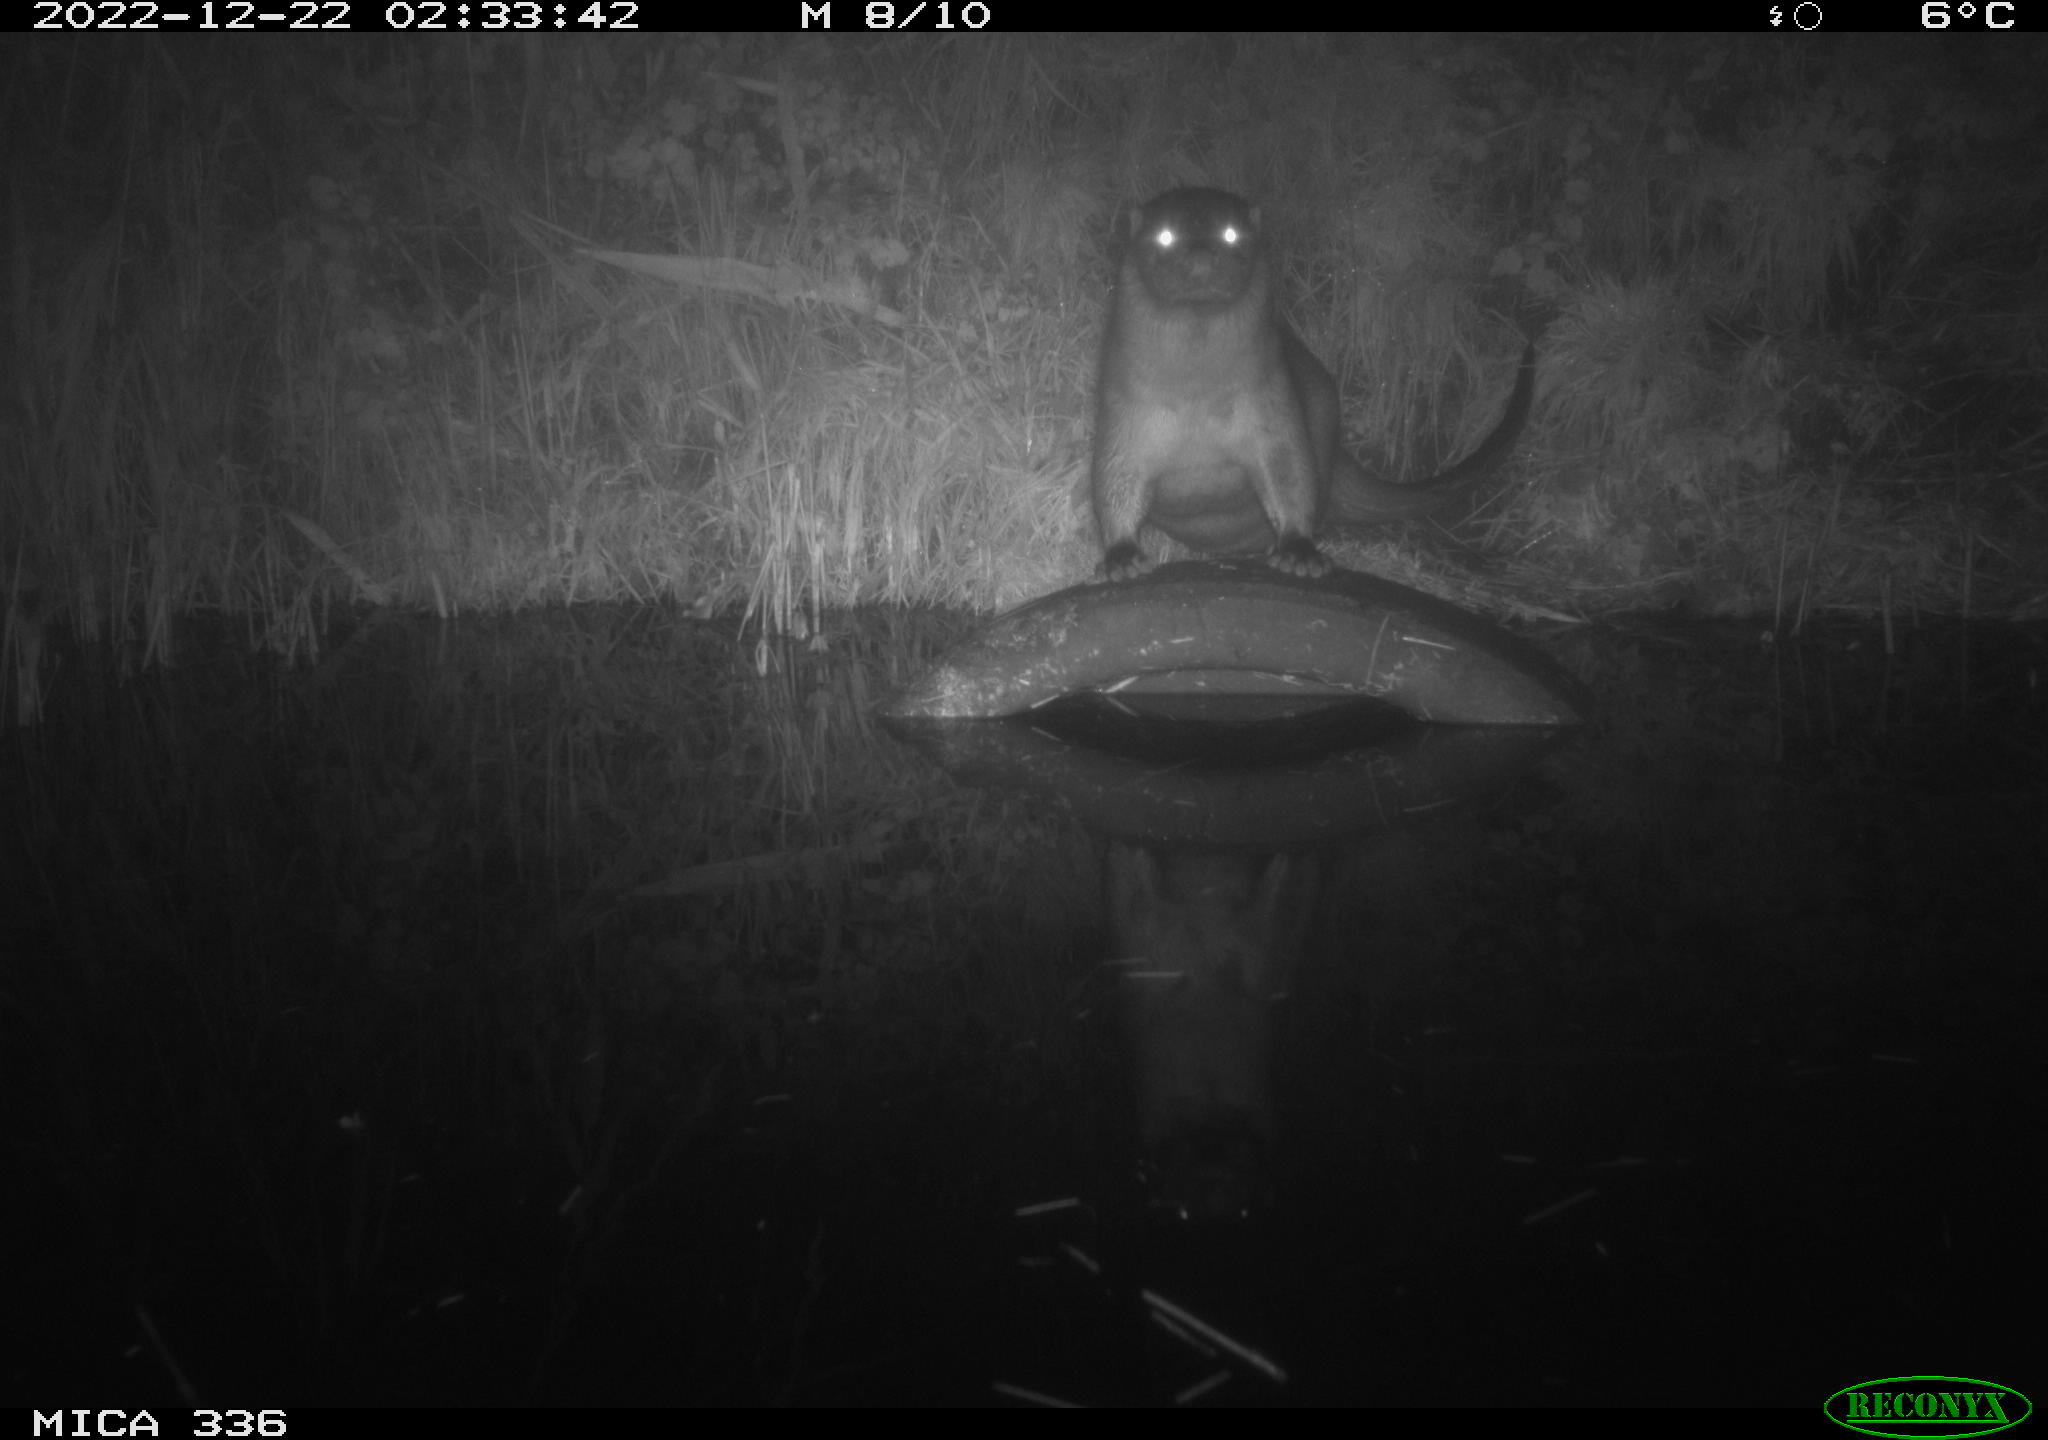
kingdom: Animalia
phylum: Chordata
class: Mammalia
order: Carnivora
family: Mustelidae
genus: Lutra
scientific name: Lutra lutra
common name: European otter
